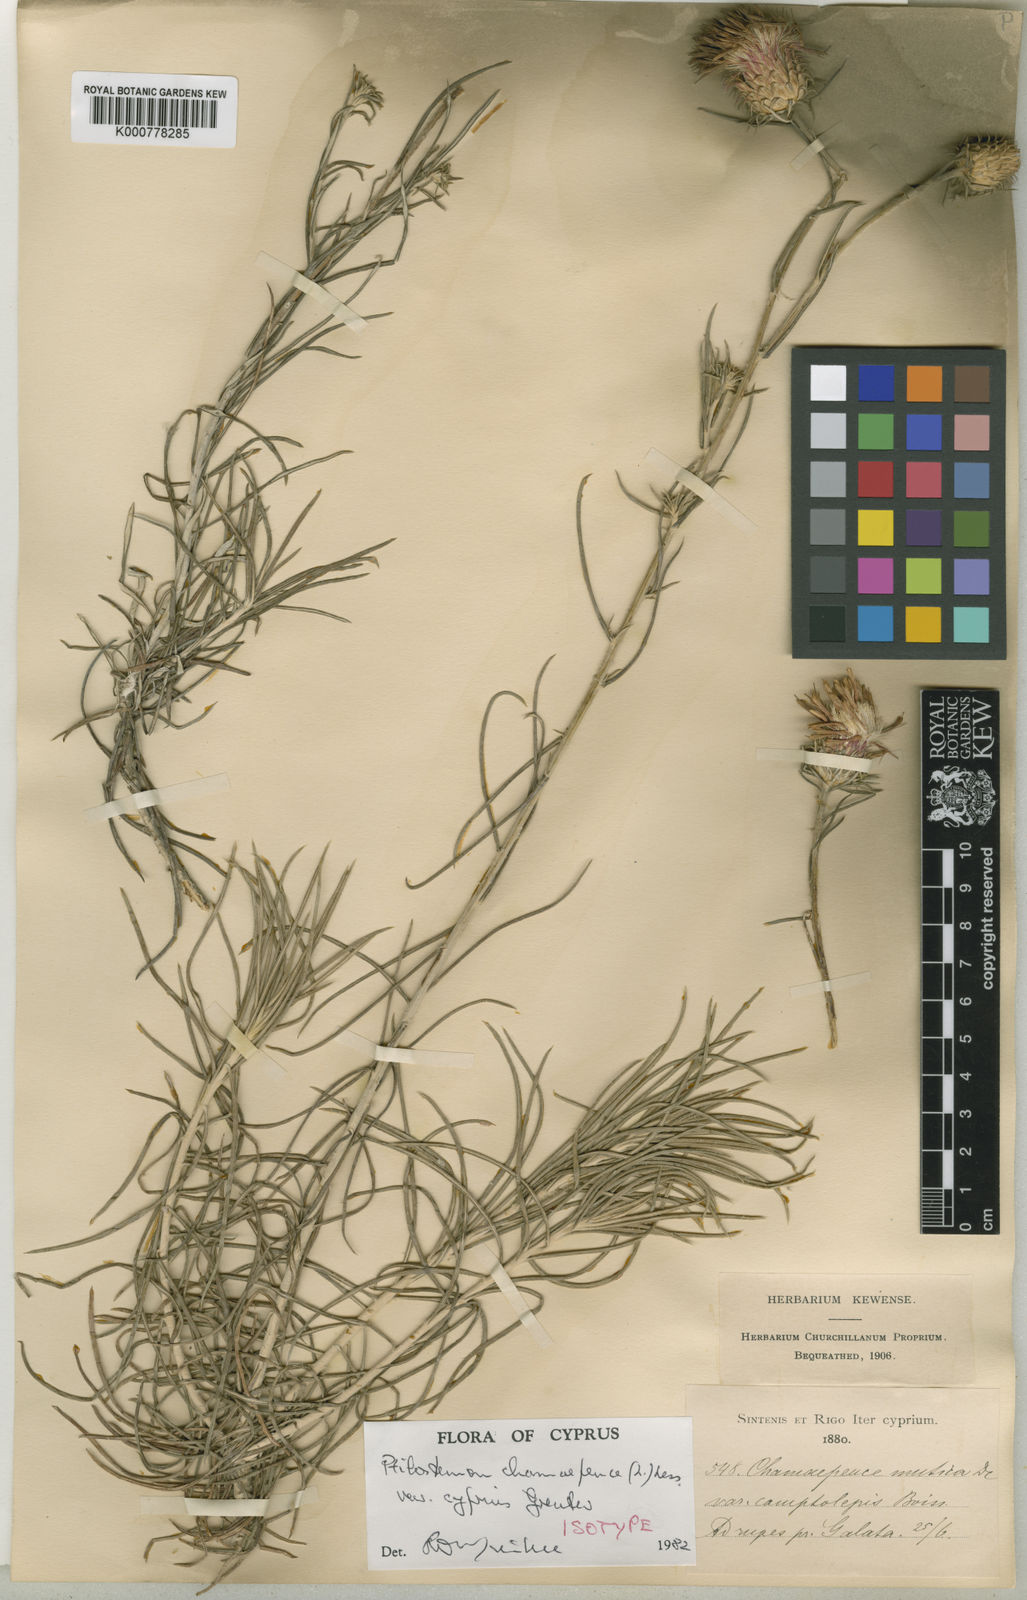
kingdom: Plantae
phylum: Tracheophyta
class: Magnoliopsida
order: Asterales
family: Asteraceae
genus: Ptilostemon
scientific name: Ptilostemon chamaepeuce
